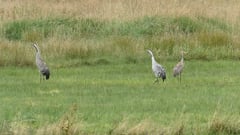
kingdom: Animalia
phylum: Chordata
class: Aves
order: Gruiformes
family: Gruidae
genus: Grus
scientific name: Grus grus
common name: Common crane
